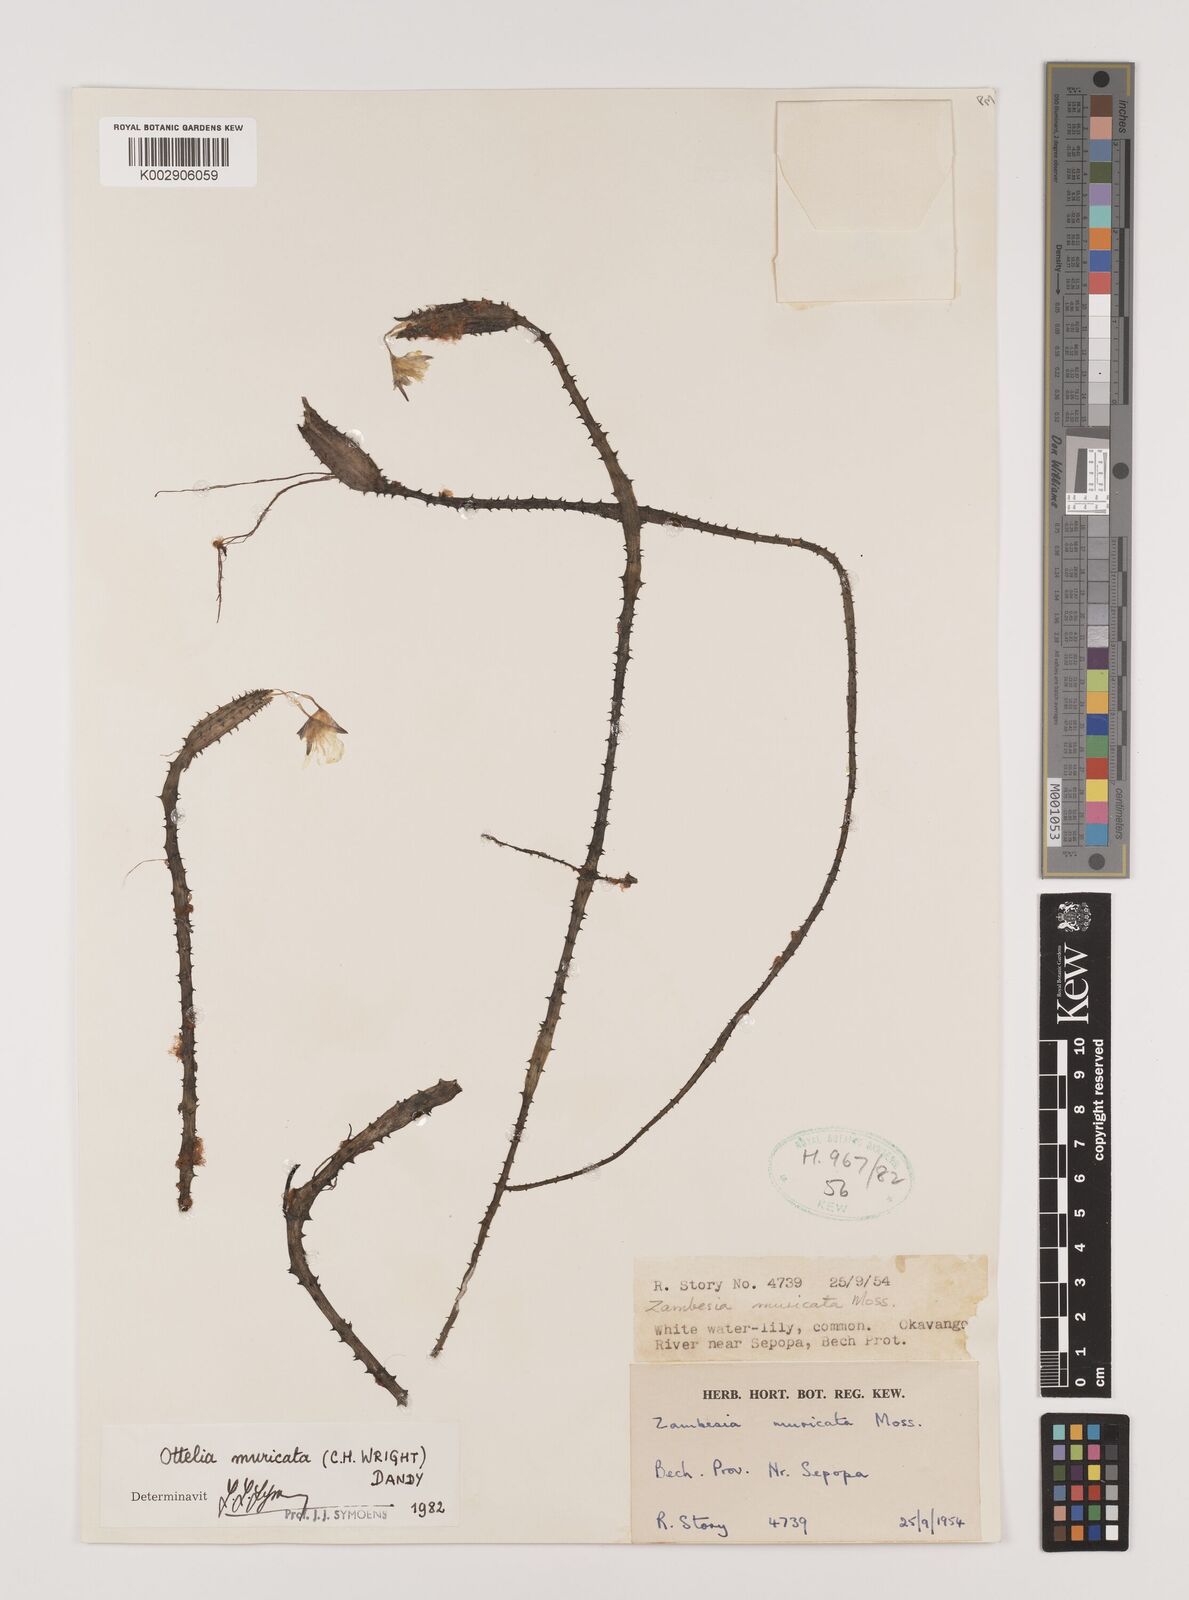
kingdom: Plantae
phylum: Tracheophyta
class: Liliopsida
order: Alismatales
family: Hydrocharitaceae
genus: Ottelia
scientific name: Ottelia muricata
